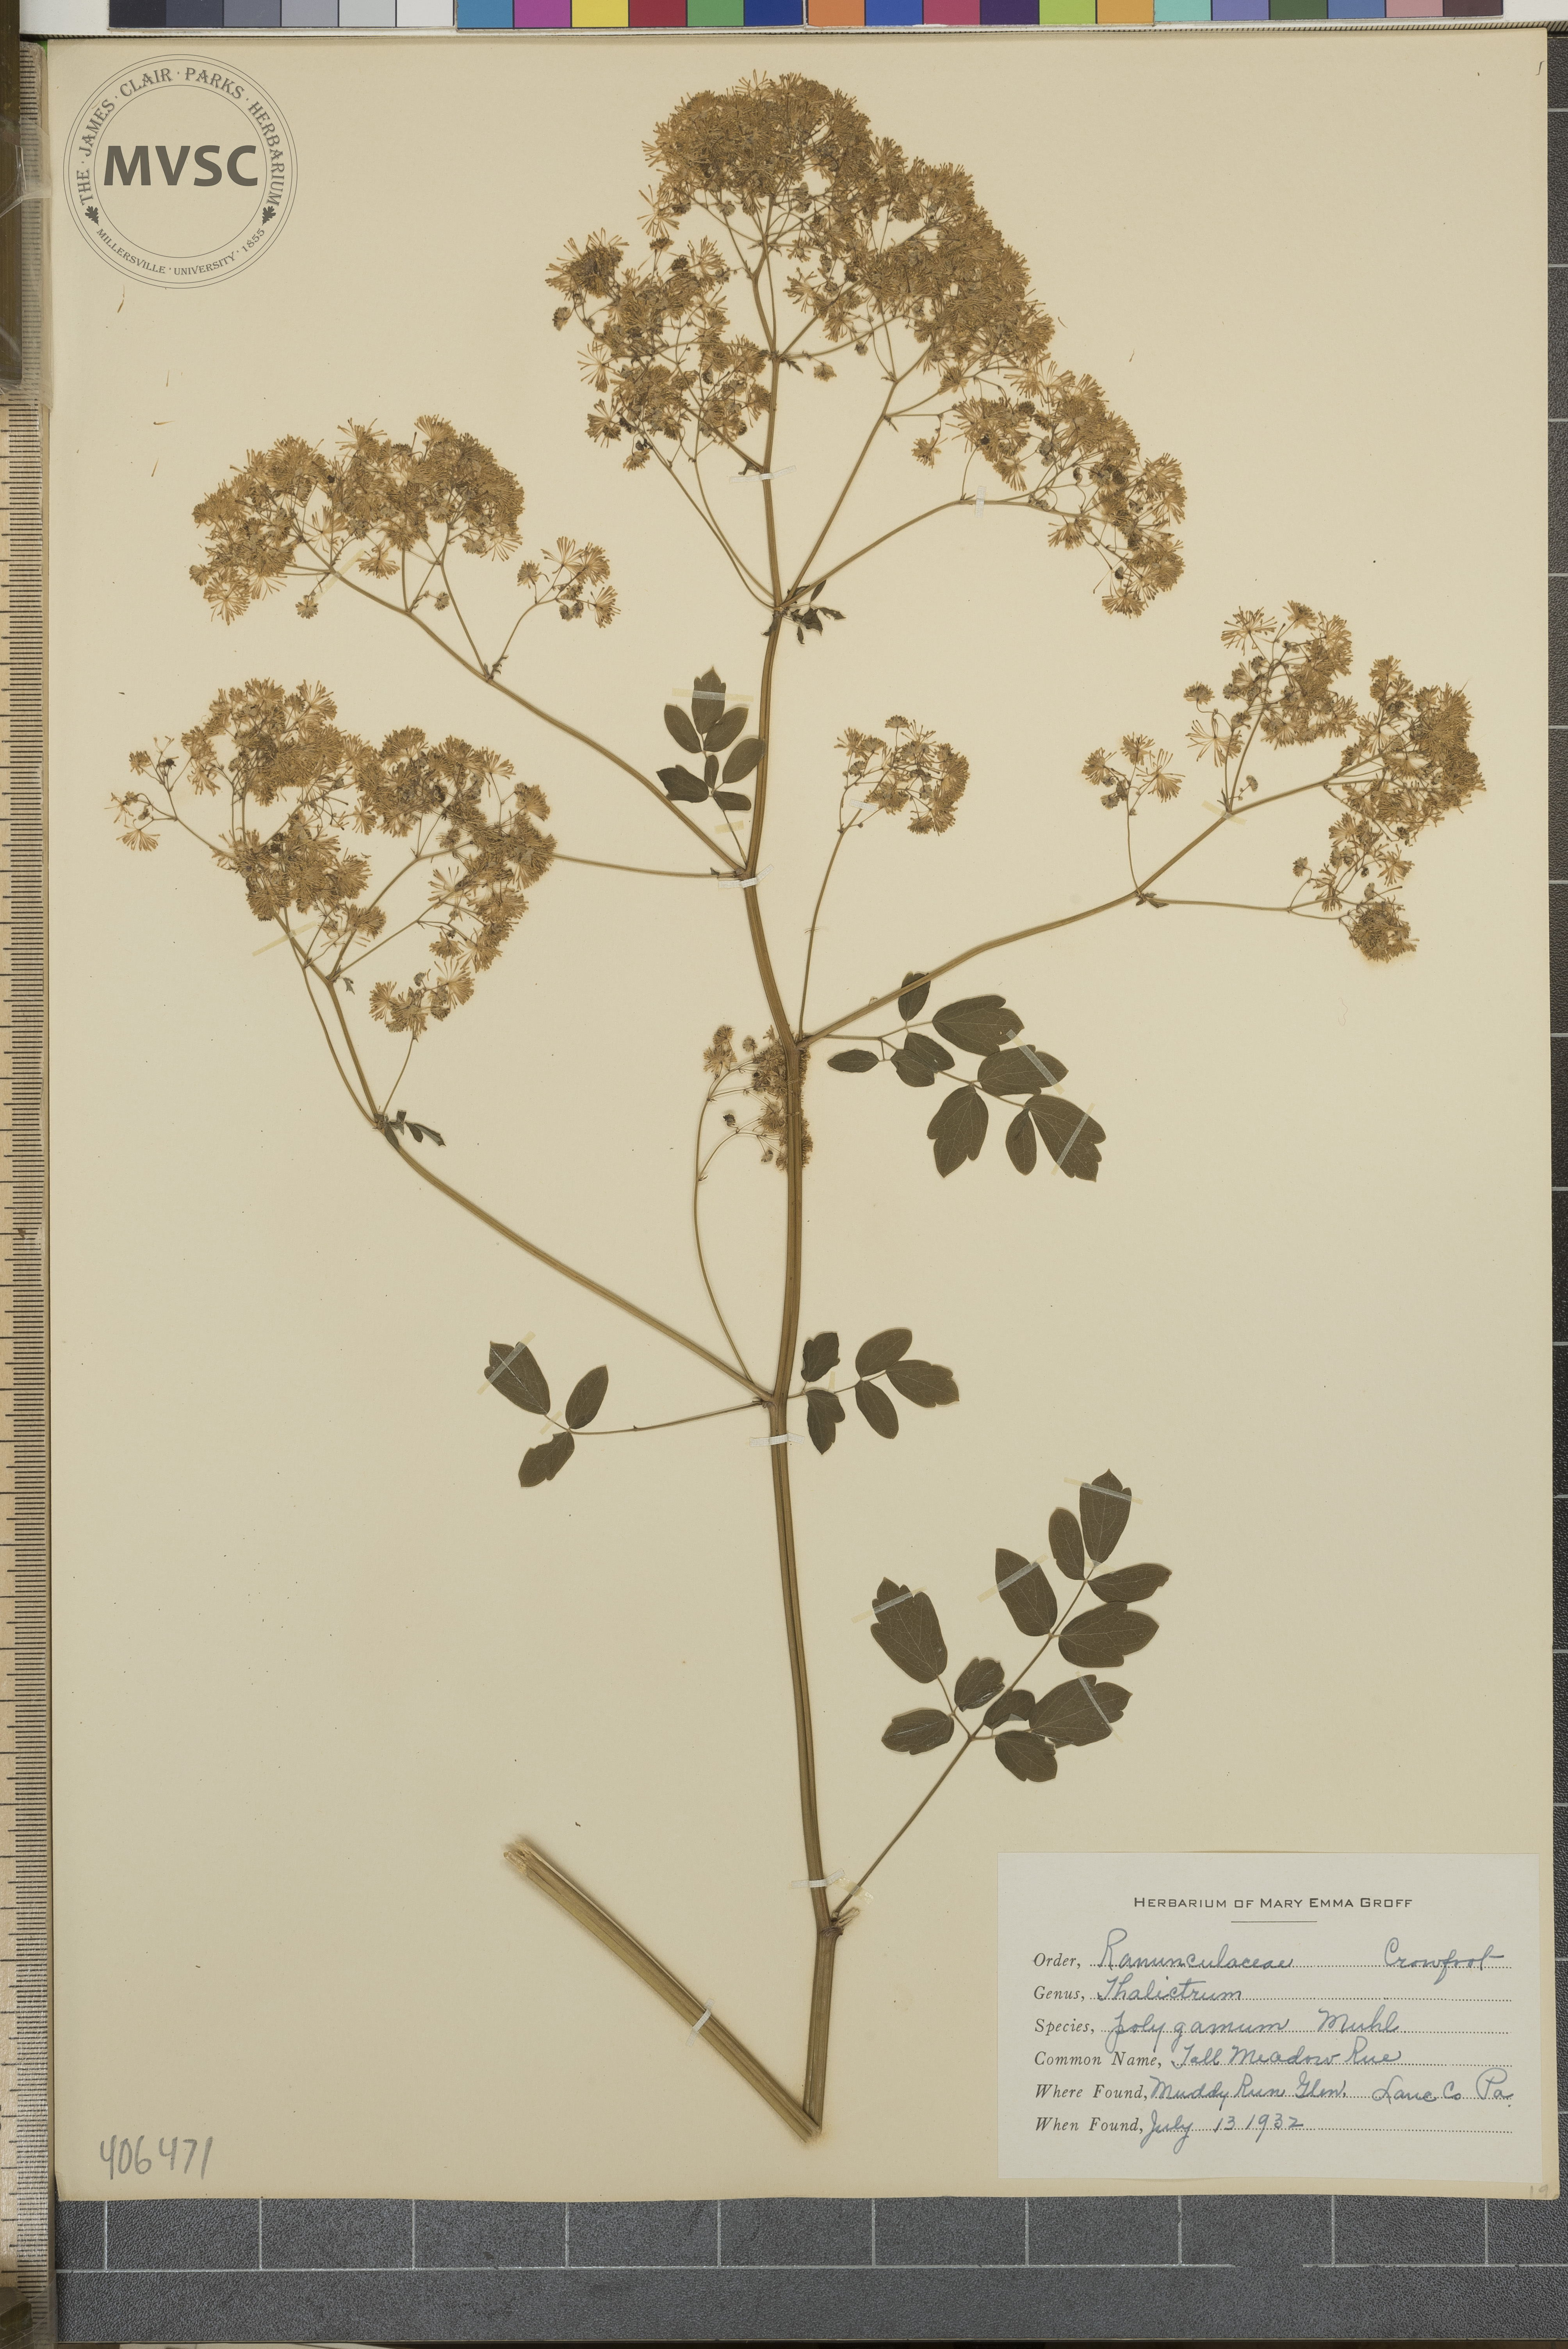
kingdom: Plantae
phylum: Tracheophyta
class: Magnoliopsida
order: Ranunculales
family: Ranunculaceae
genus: Thalictrum
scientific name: Thalictrum pubescens
